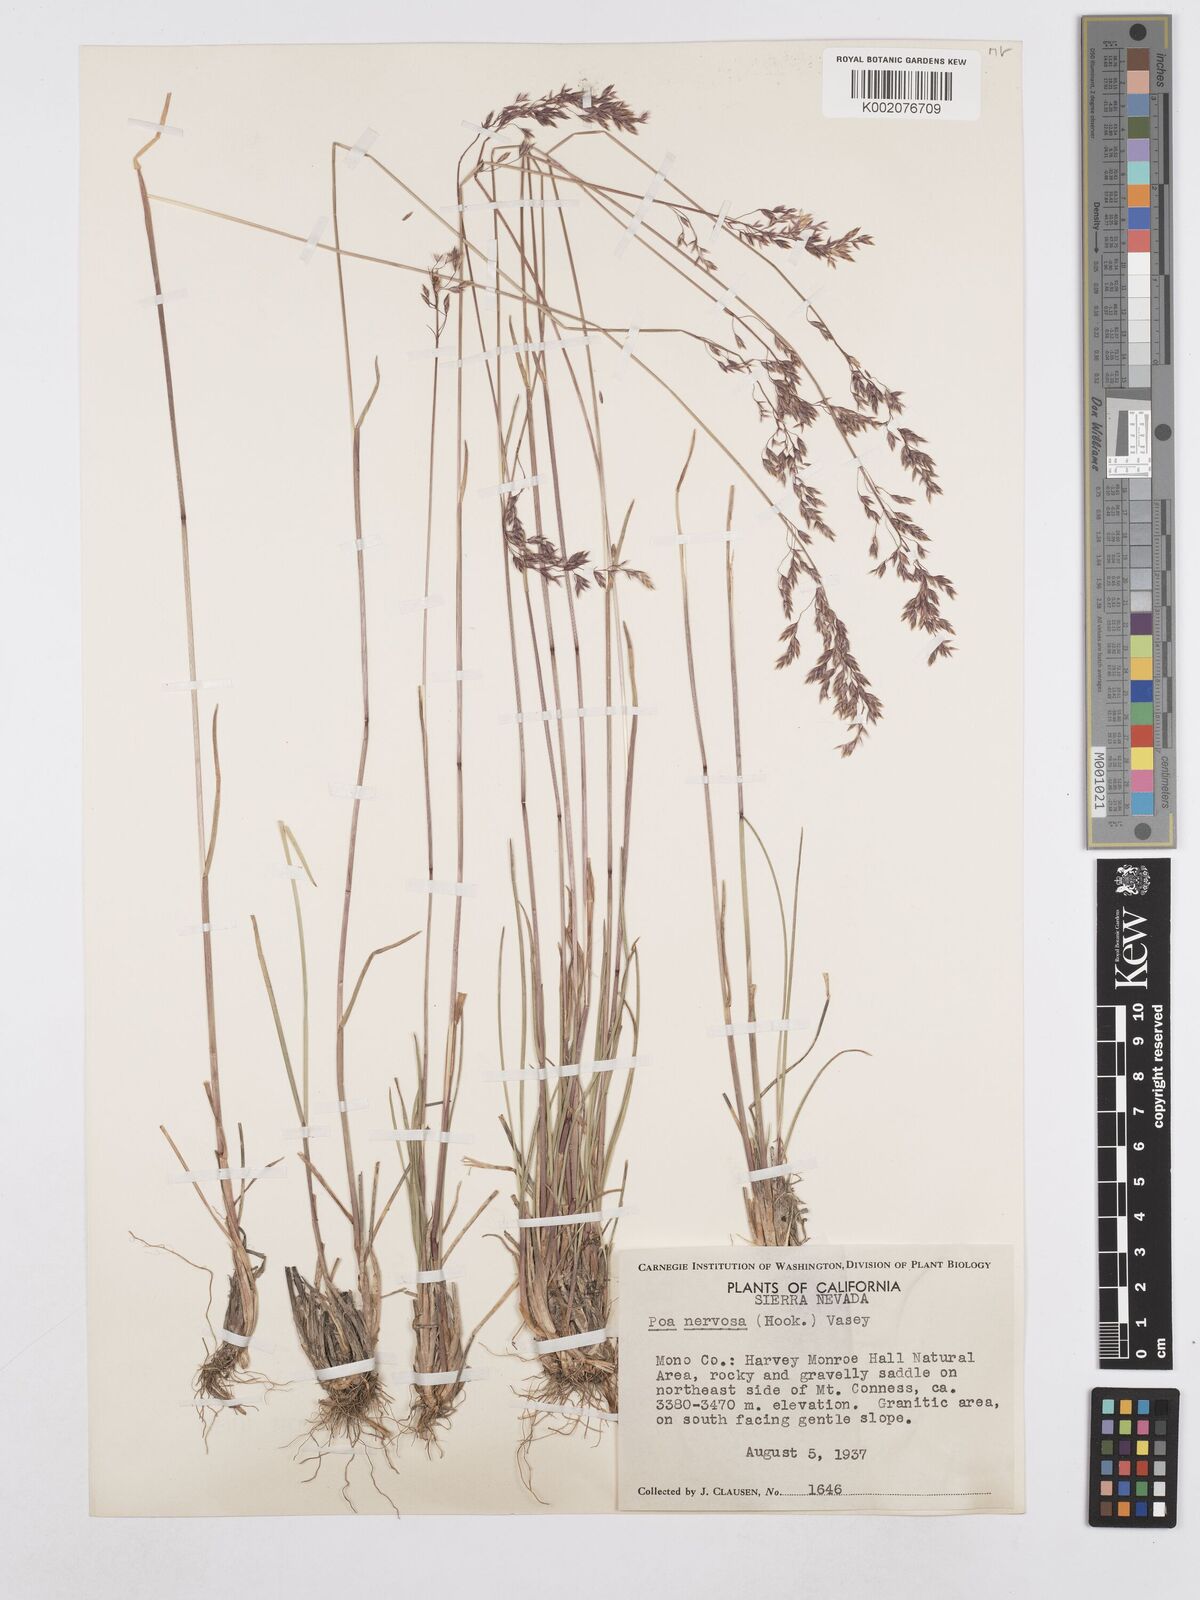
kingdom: Plantae
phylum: Tracheophyta
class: Liliopsida
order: Poales
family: Poaceae
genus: Poa
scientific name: Poa nervosa
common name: Hooker's bluegrass
